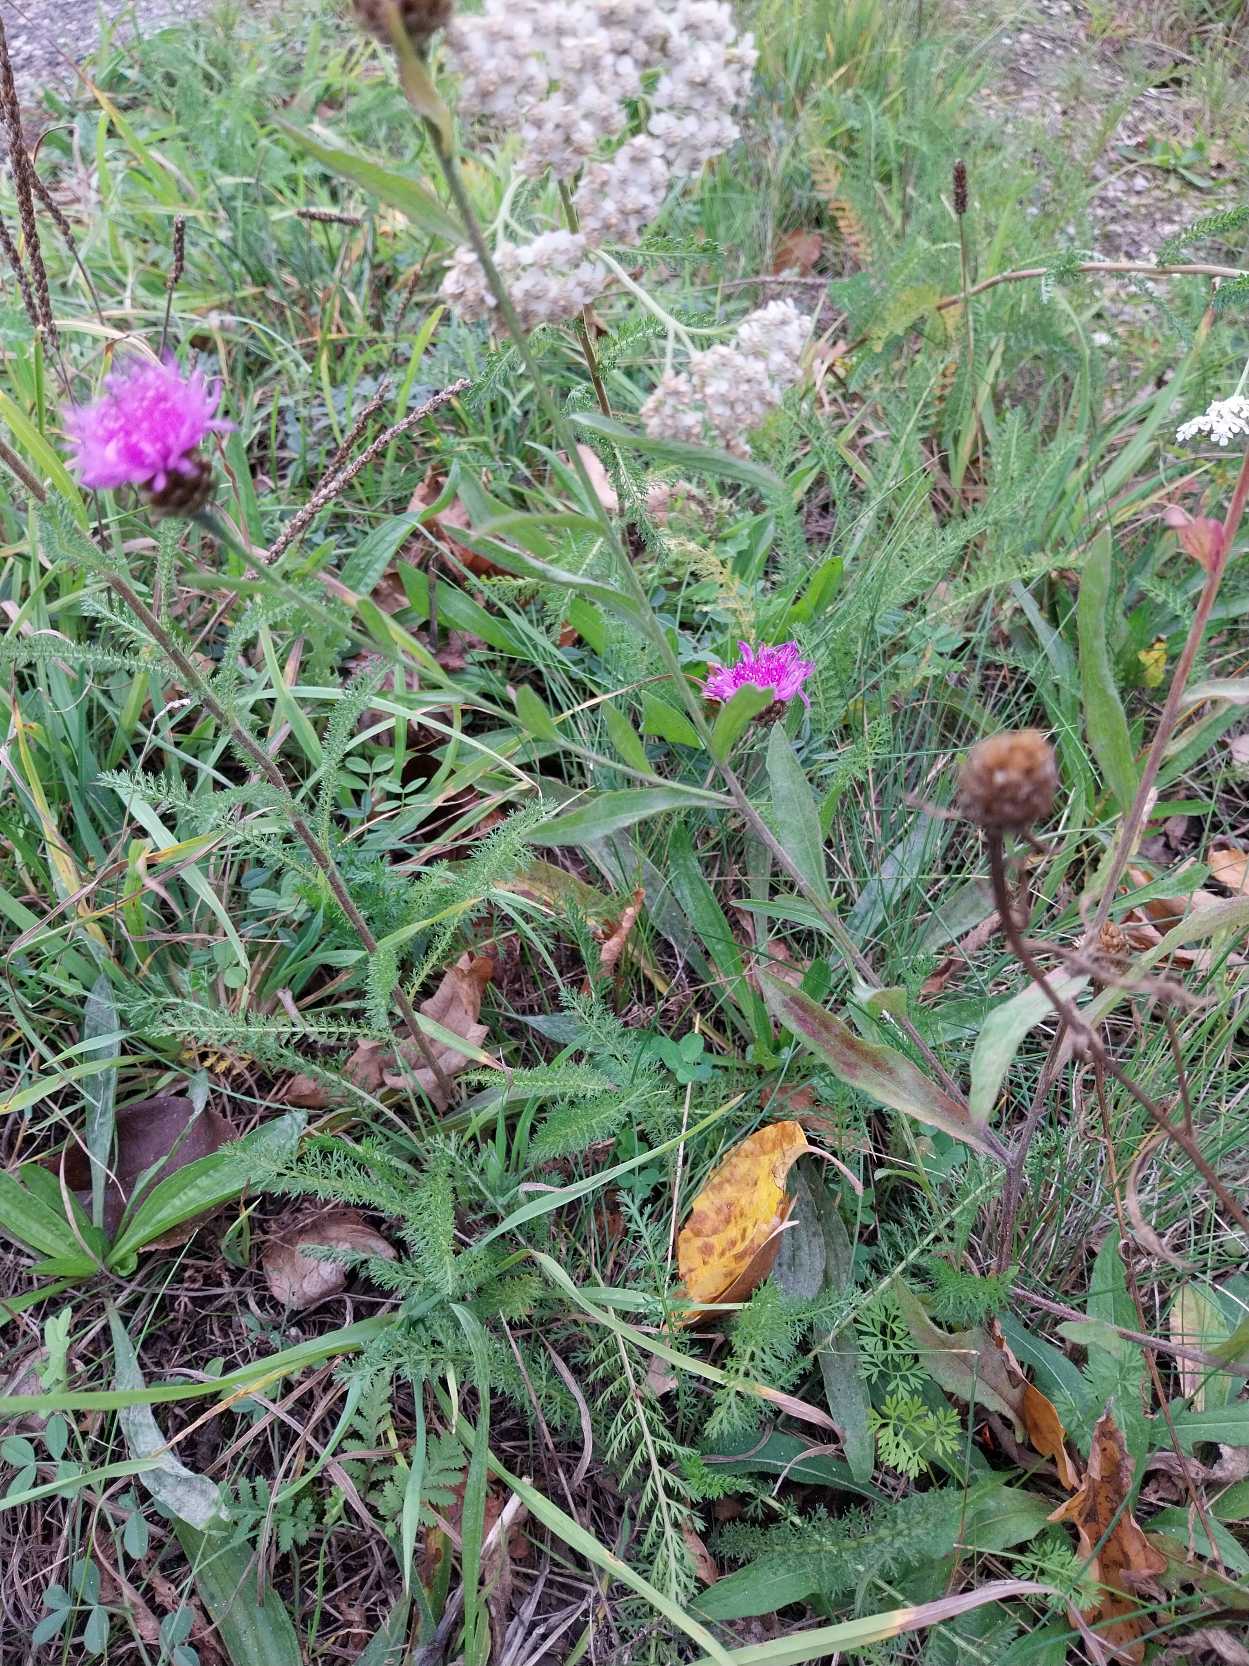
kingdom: Plantae
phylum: Tracheophyta
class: Magnoliopsida
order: Asterales
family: Asteraceae
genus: Centaurea
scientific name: Centaurea jacea
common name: Almindelig knopurt
